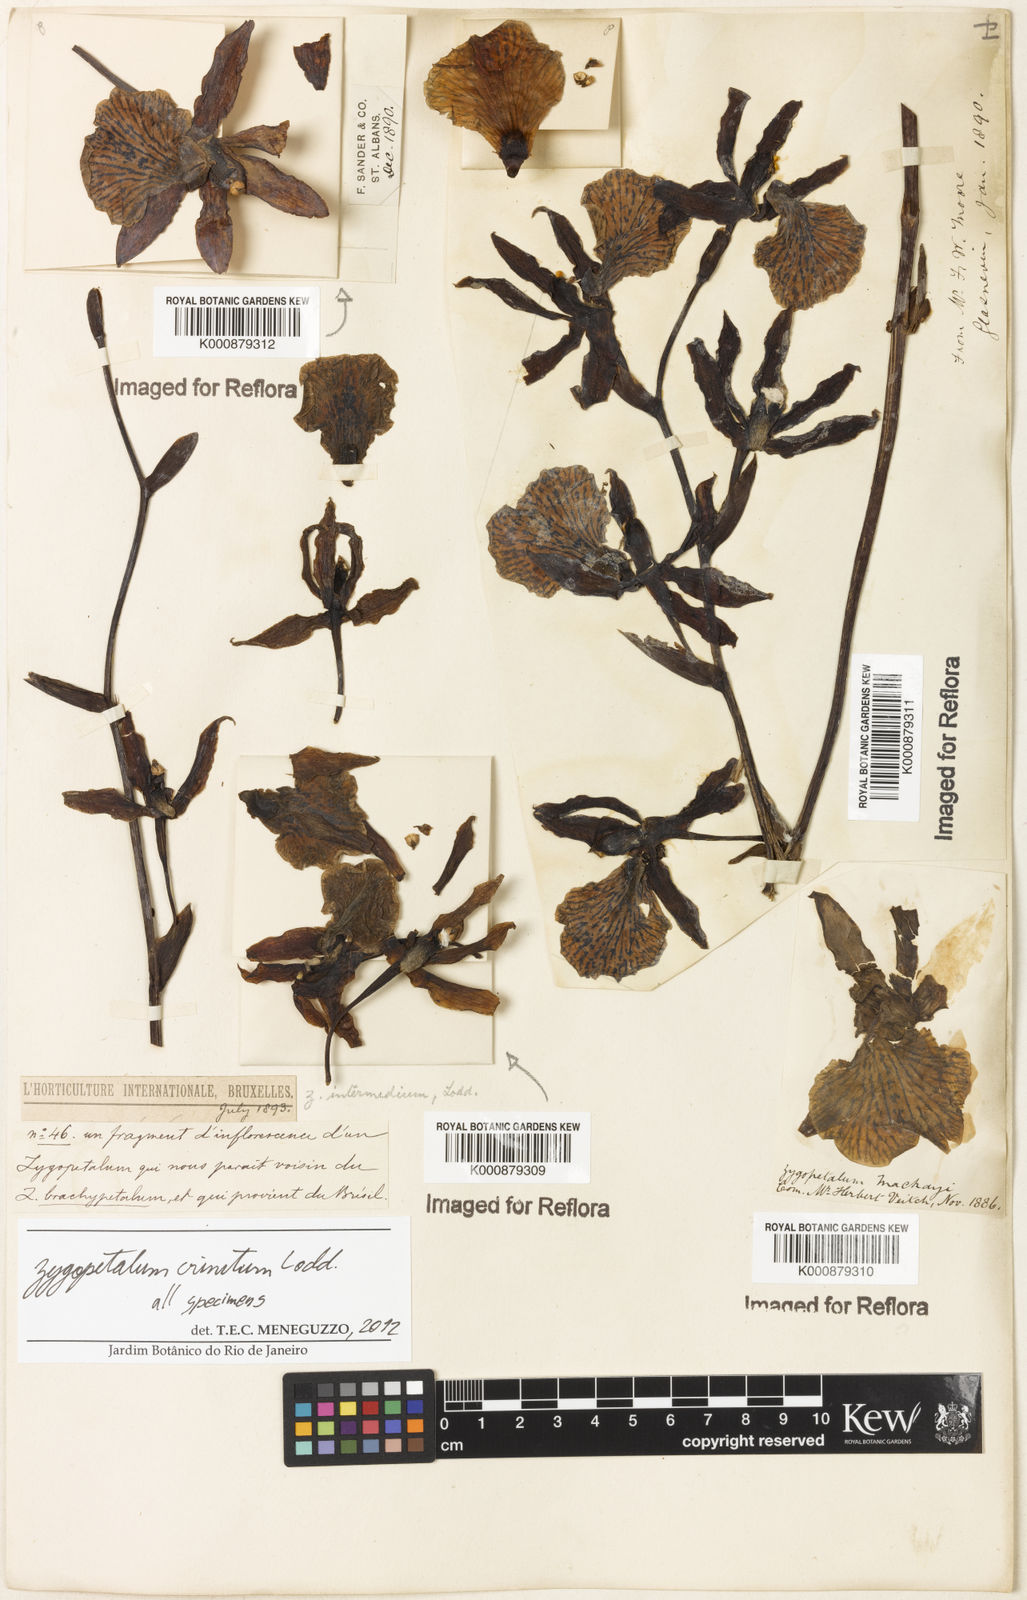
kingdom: Plantae
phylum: Tracheophyta
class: Liliopsida
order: Asparagales
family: Orchidaceae
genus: Zygopetalum
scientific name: Zygopetalum crinitum
